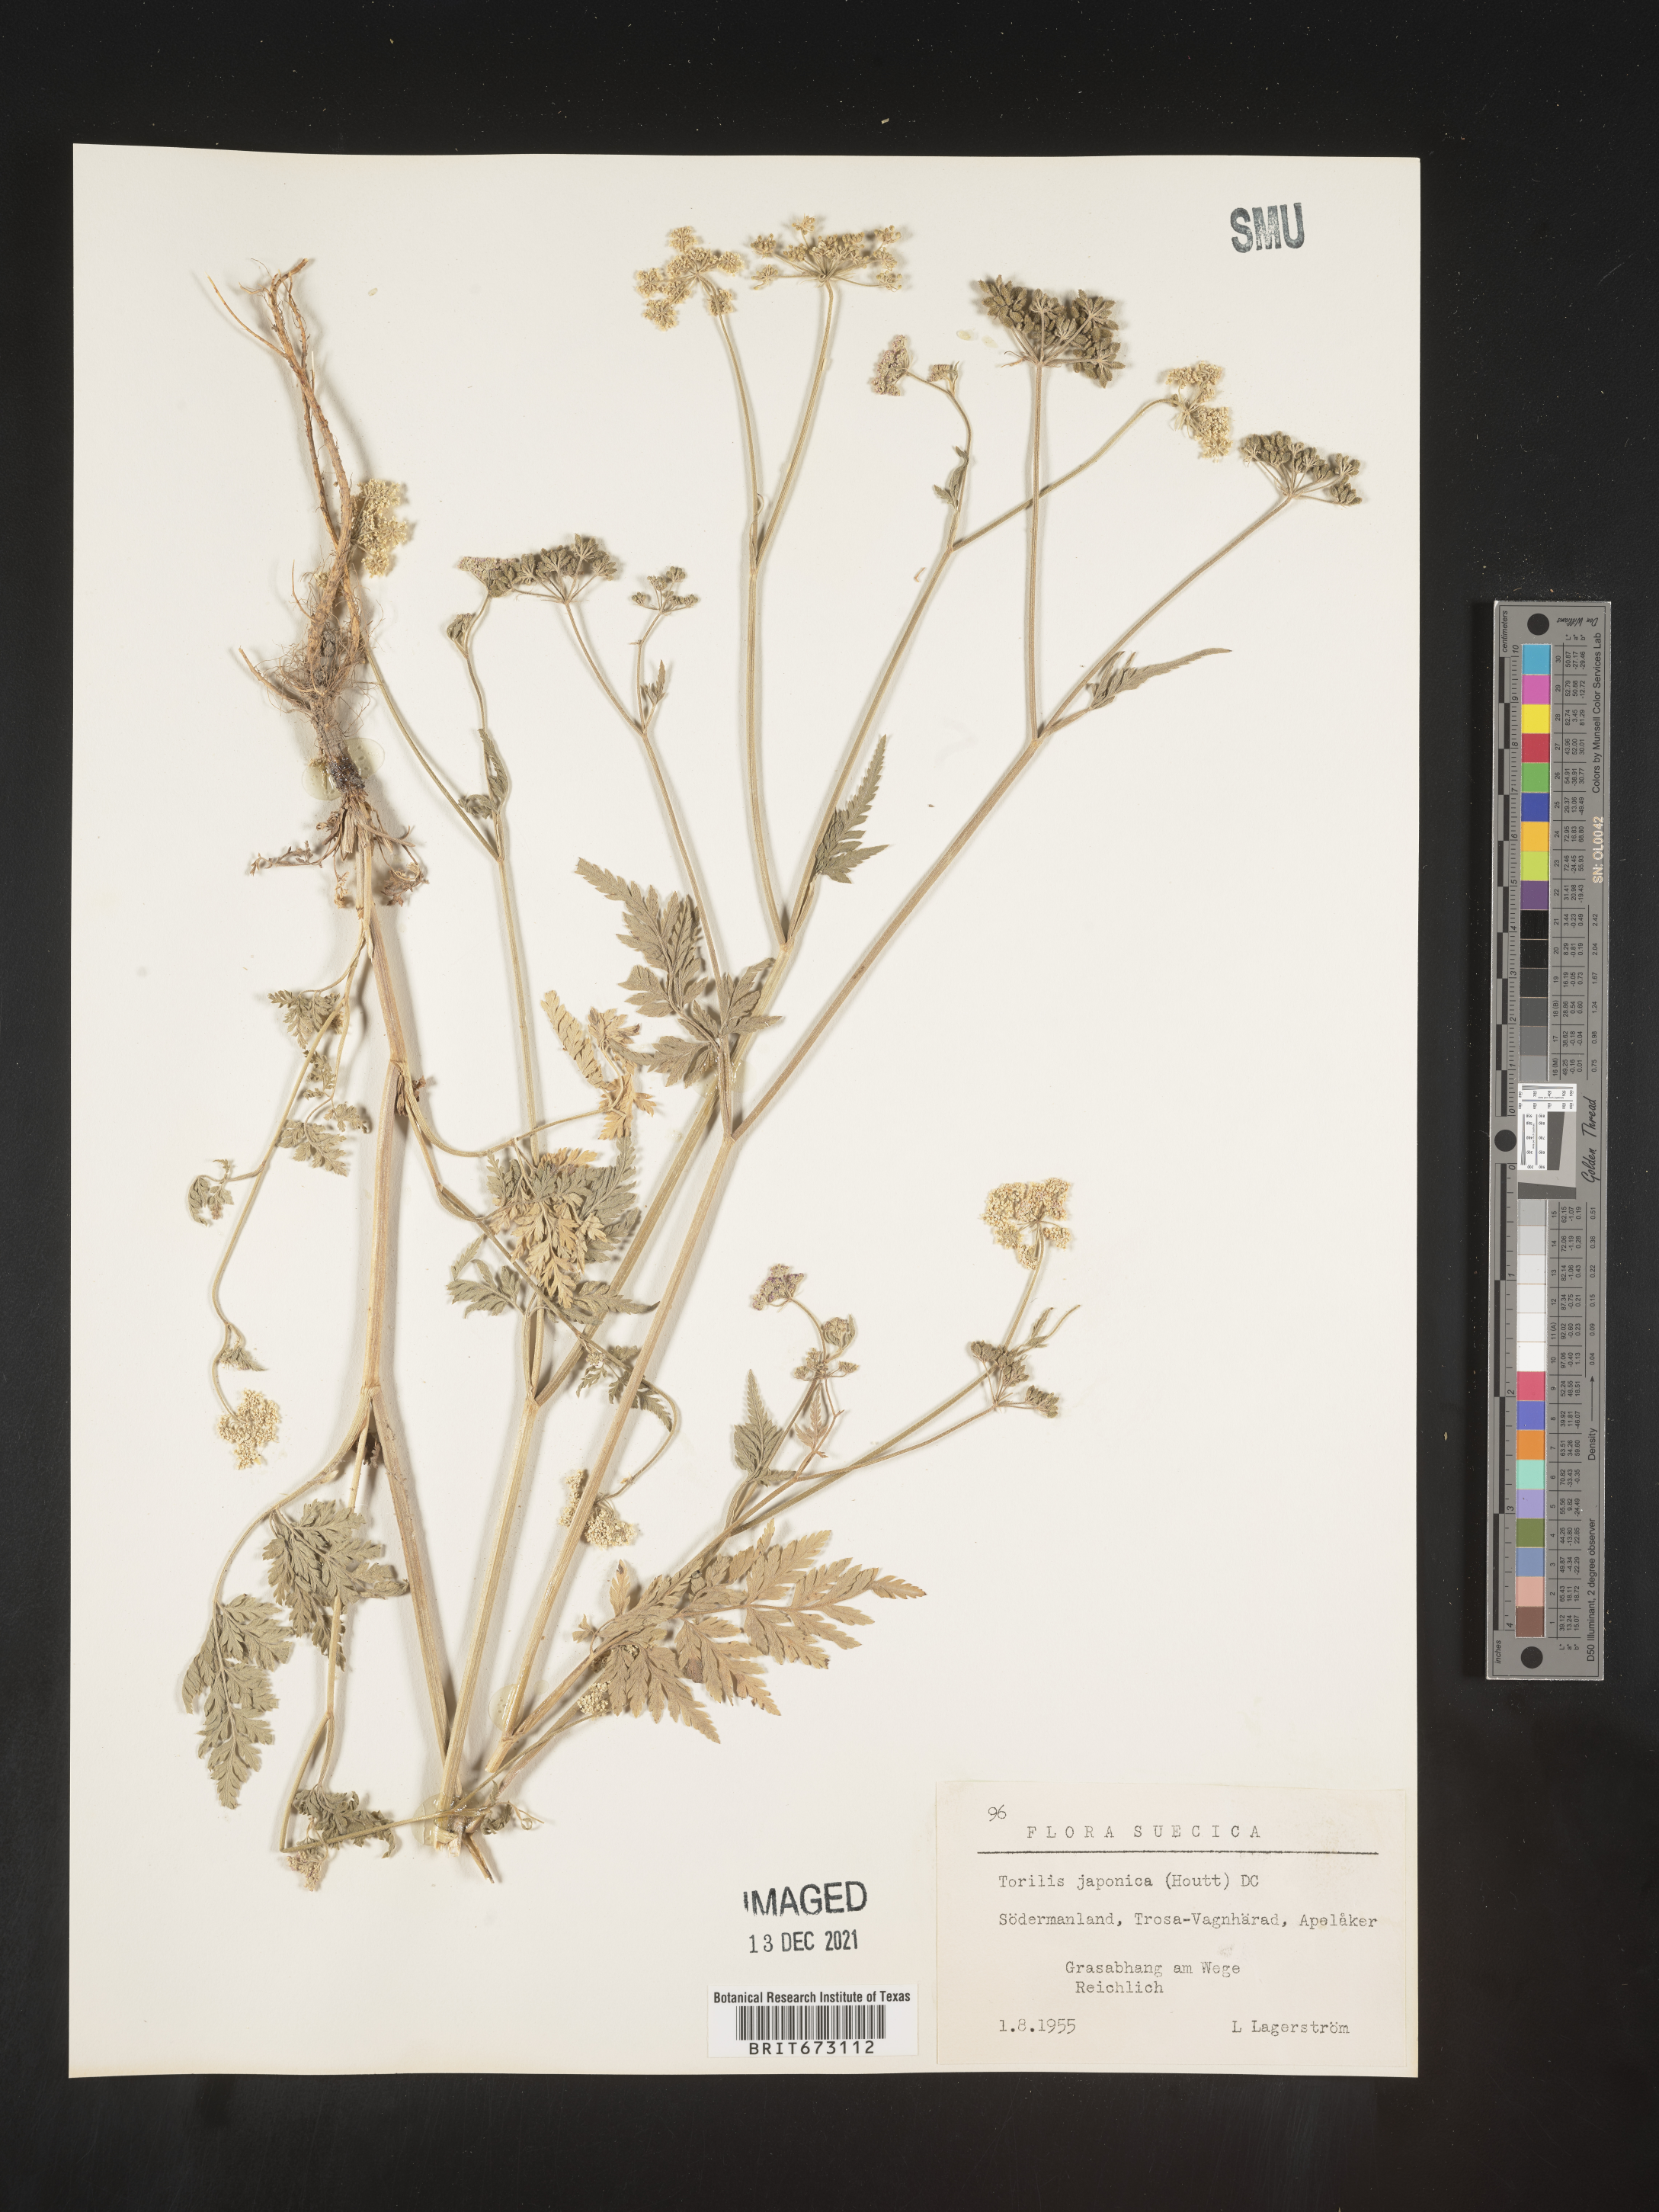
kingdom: Plantae
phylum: Tracheophyta
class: Magnoliopsida
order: Apiales
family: Apiaceae
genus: Torilis
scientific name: Torilis
